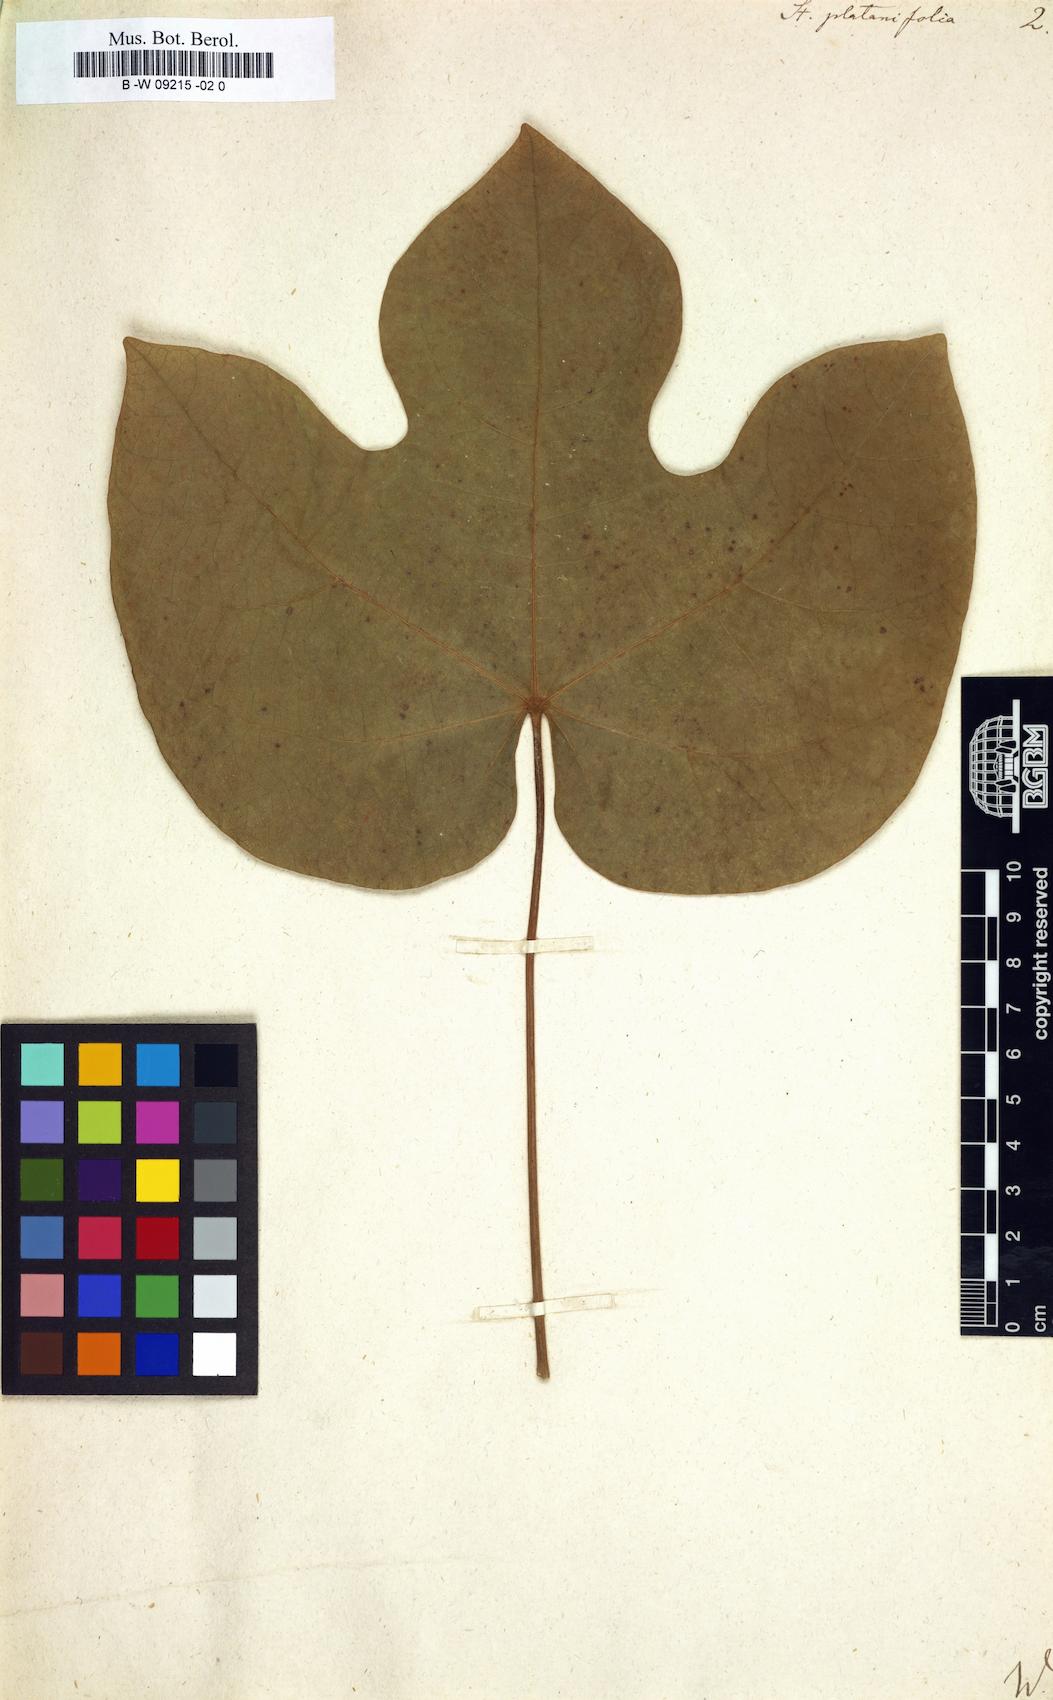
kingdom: Plantae
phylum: Tracheophyta
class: Magnoliopsida
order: Malvales
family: Malvaceae
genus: Firmiana
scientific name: Firmiana simplex
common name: Chinese parasoltree
